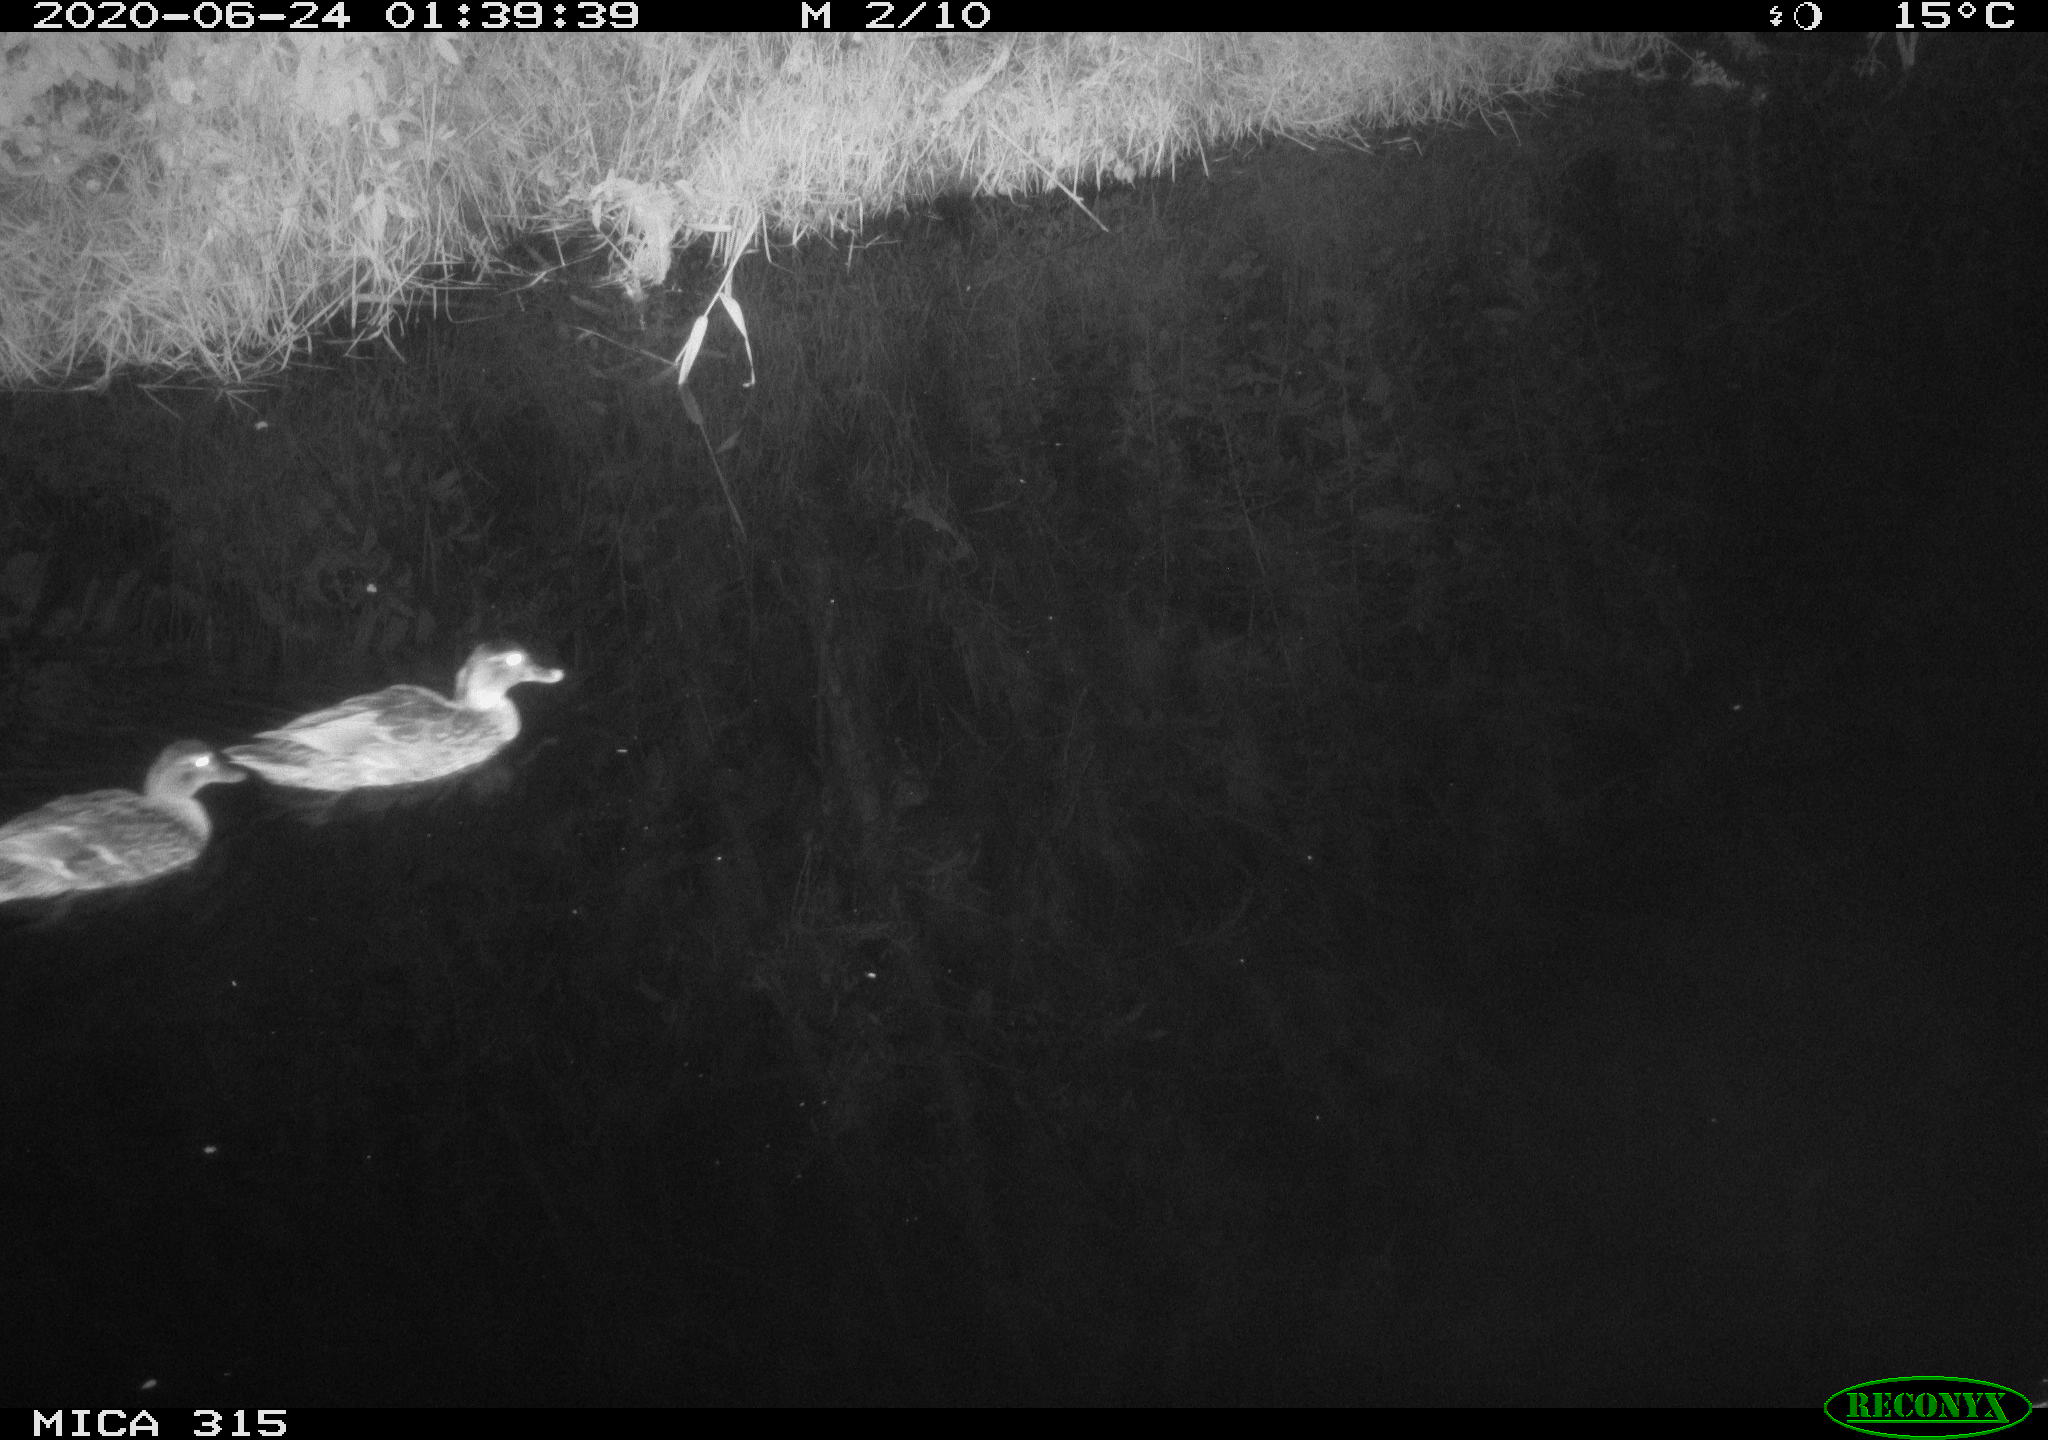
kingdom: Animalia
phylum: Chordata
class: Aves
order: Anseriformes
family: Anatidae
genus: Anas
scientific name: Anas platyrhynchos
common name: Mallard
